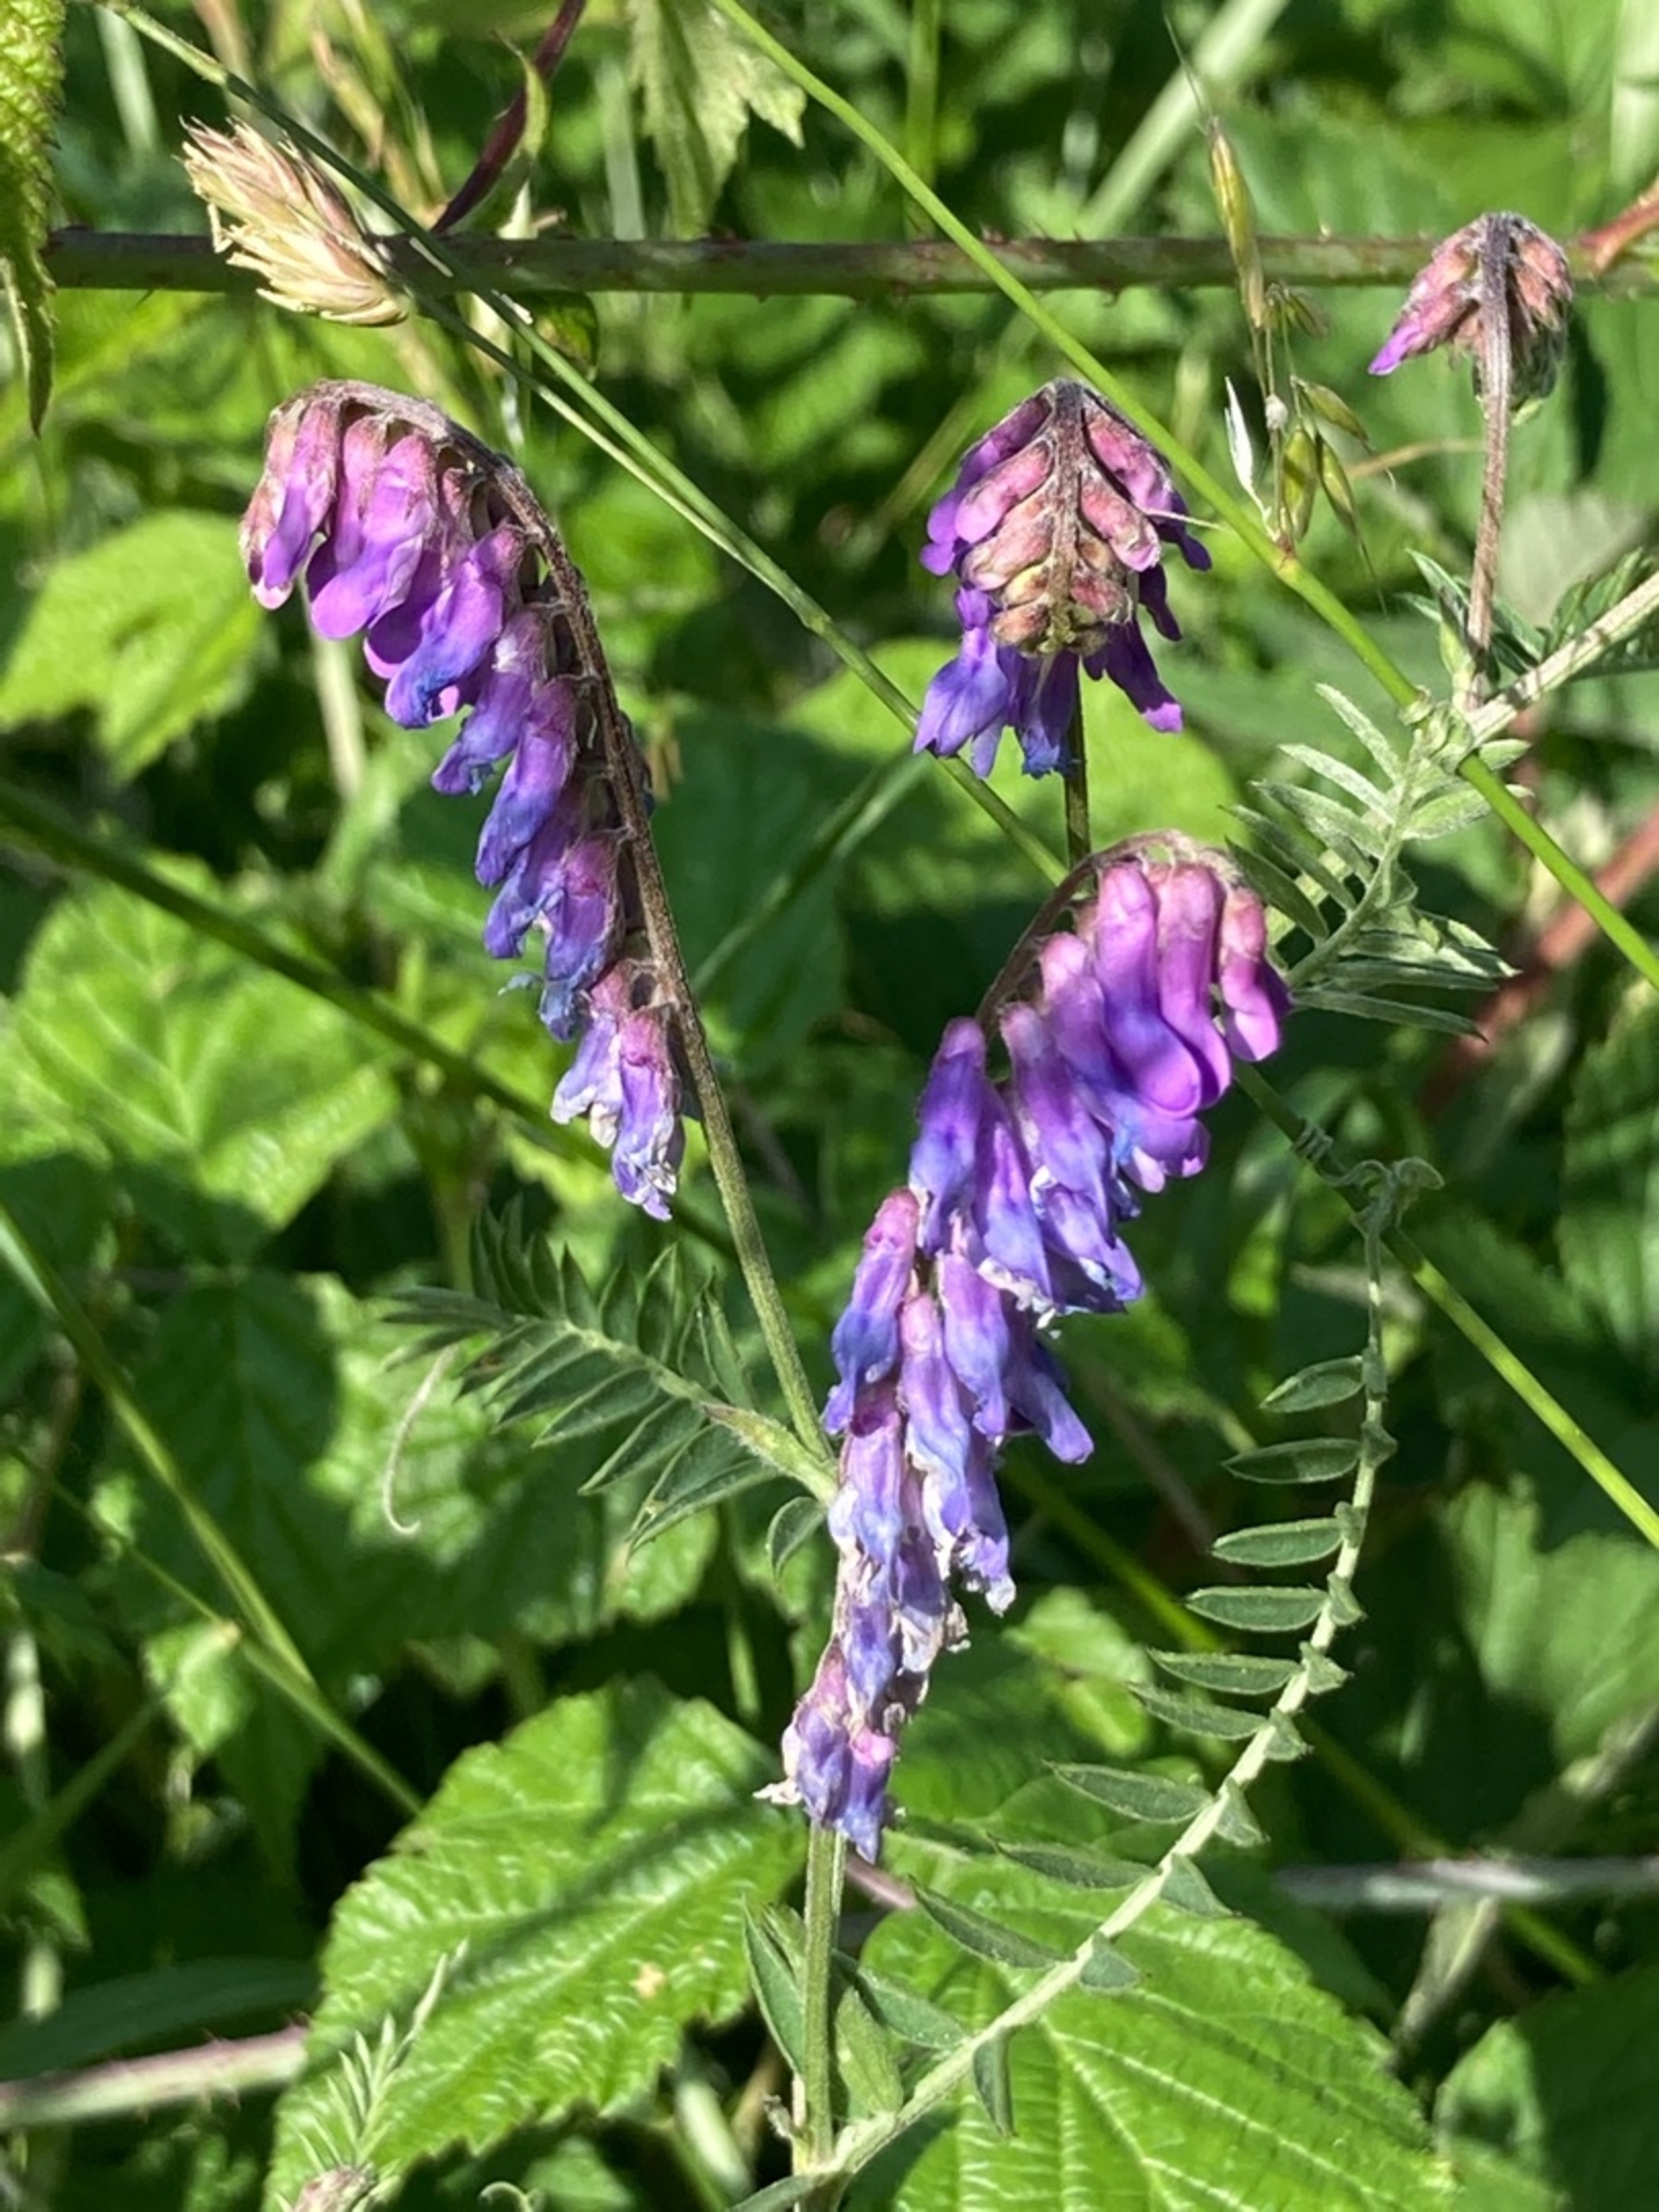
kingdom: Plantae
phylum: Tracheophyta
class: Magnoliopsida
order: Fabales
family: Fabaceae
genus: Vicia
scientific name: Vicia cracca
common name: Muse-vikke
